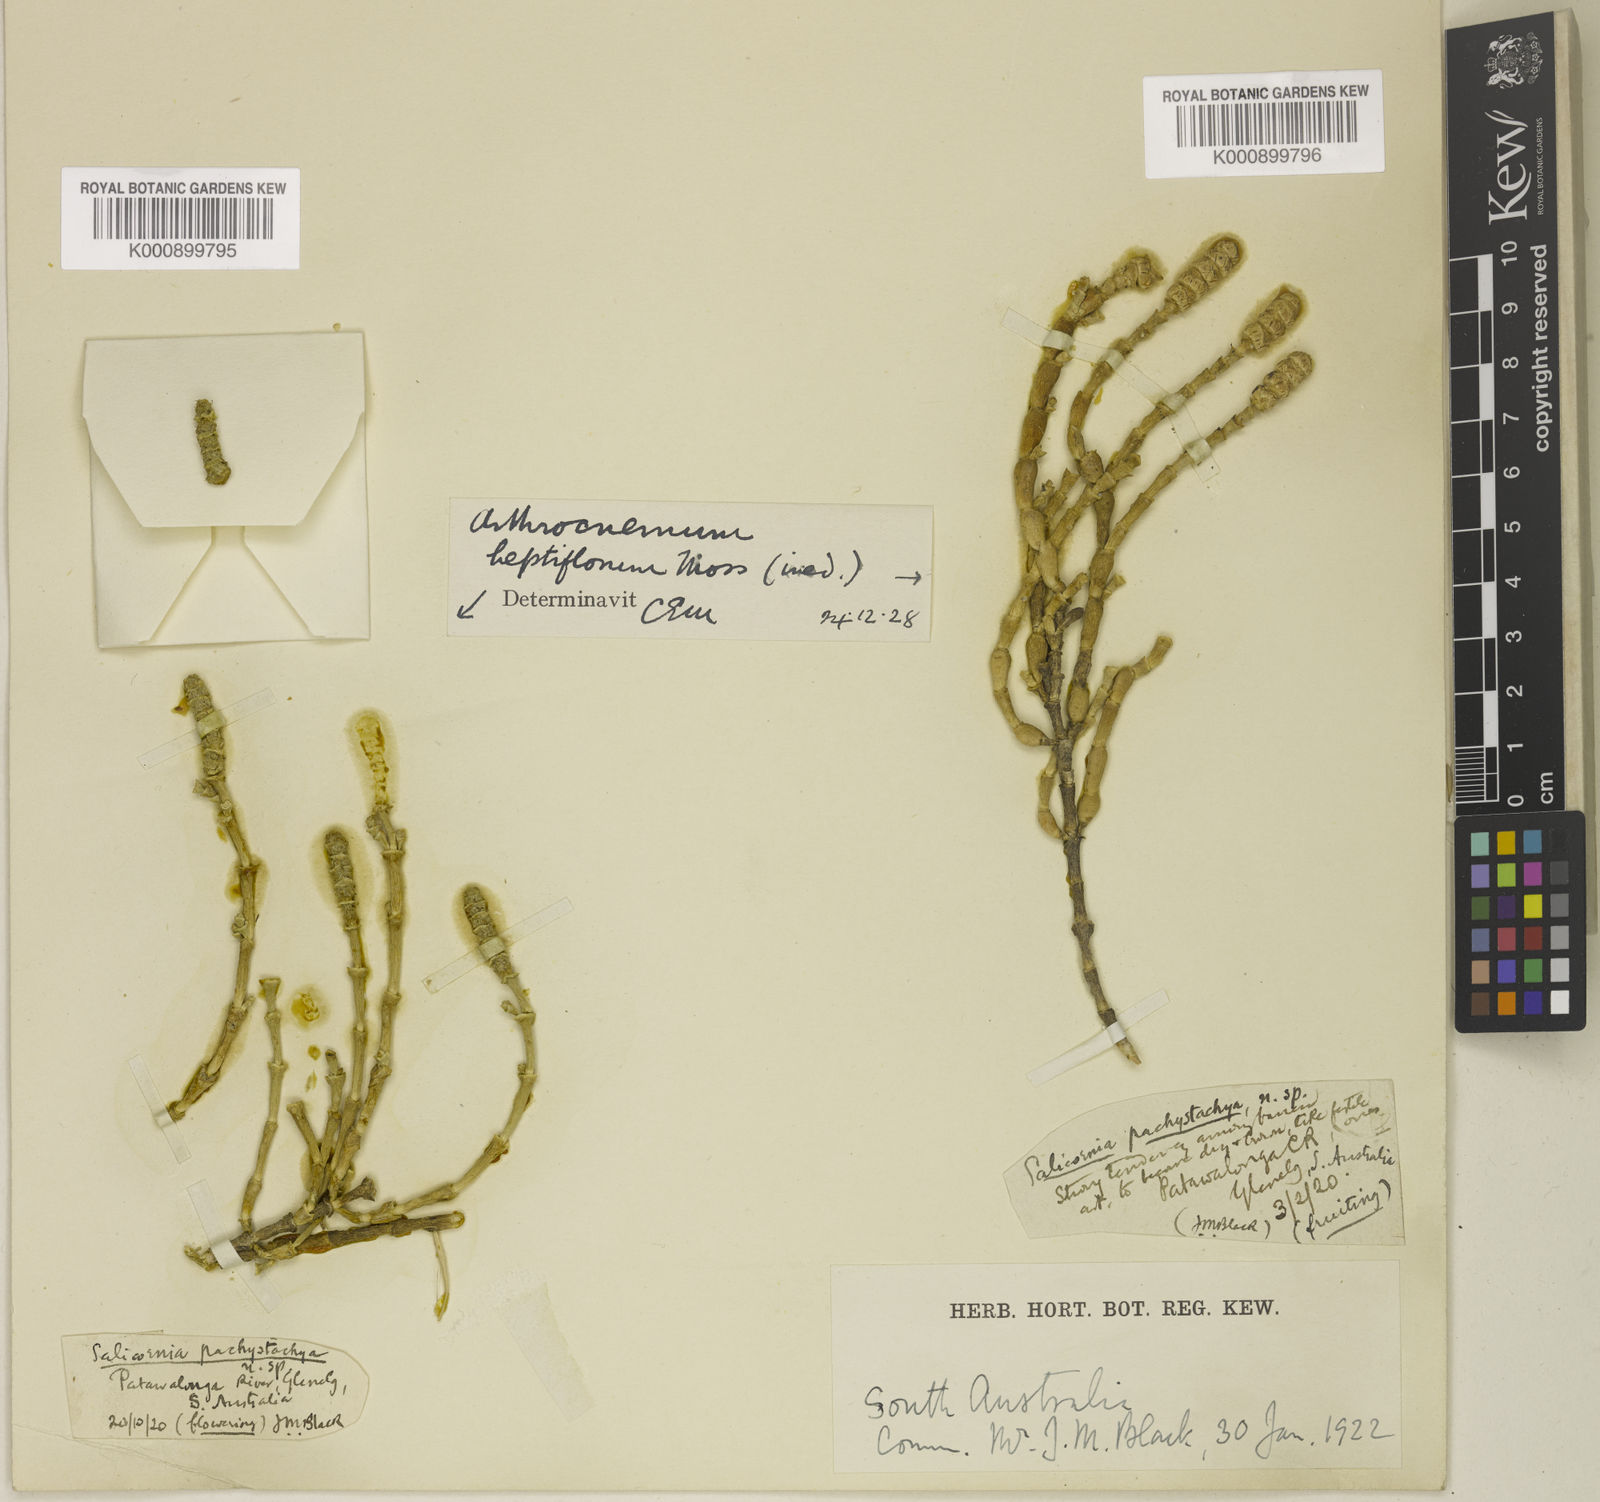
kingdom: Plantae
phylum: Tracheophyta
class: Magnoliopsida
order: Caryophyllales
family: Amaranthaceae
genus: Salicornia
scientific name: Salicornia blackiana
